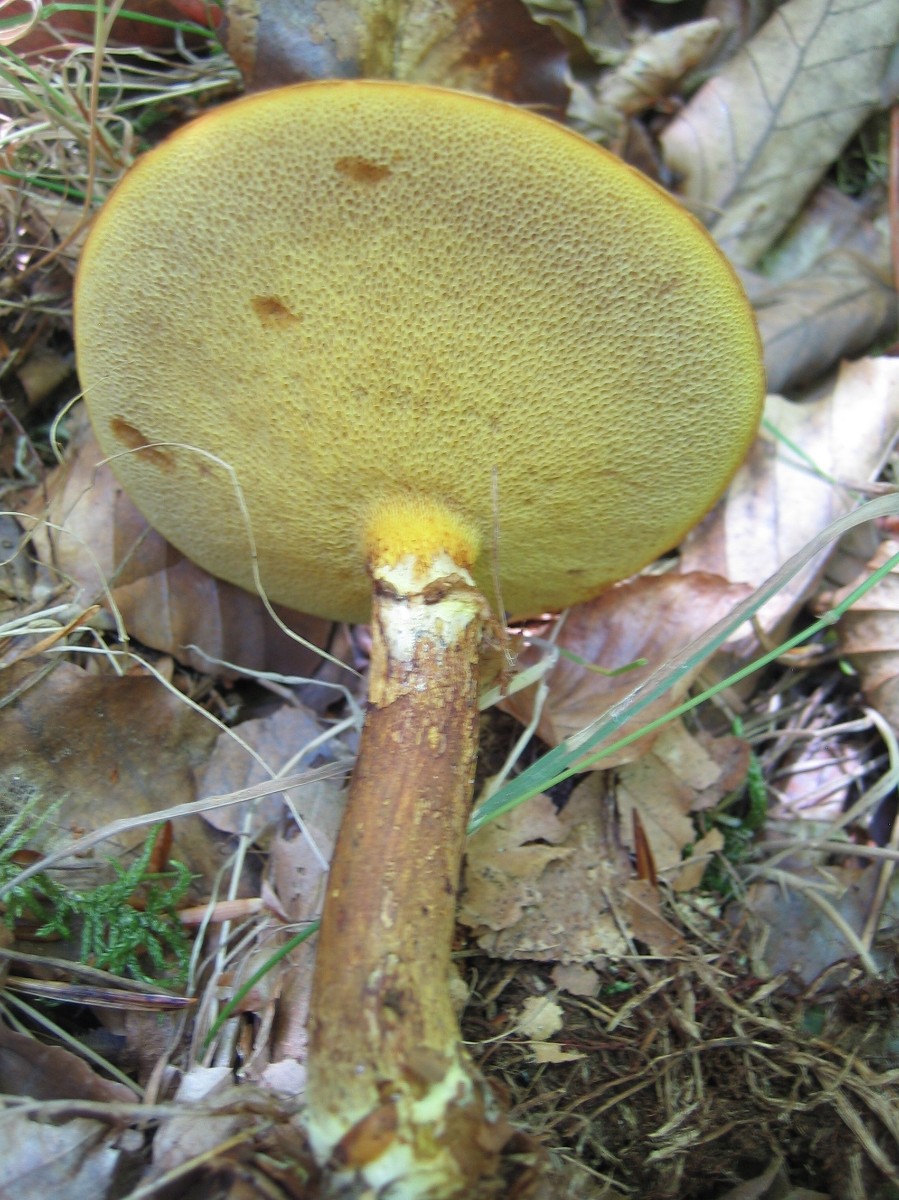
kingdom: Fungi
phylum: Basidiomycota
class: Agaricomycetes
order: Boletales
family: Suillaceae
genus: Suillus
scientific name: Suillus grevillei
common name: lærke-slimrørhat
